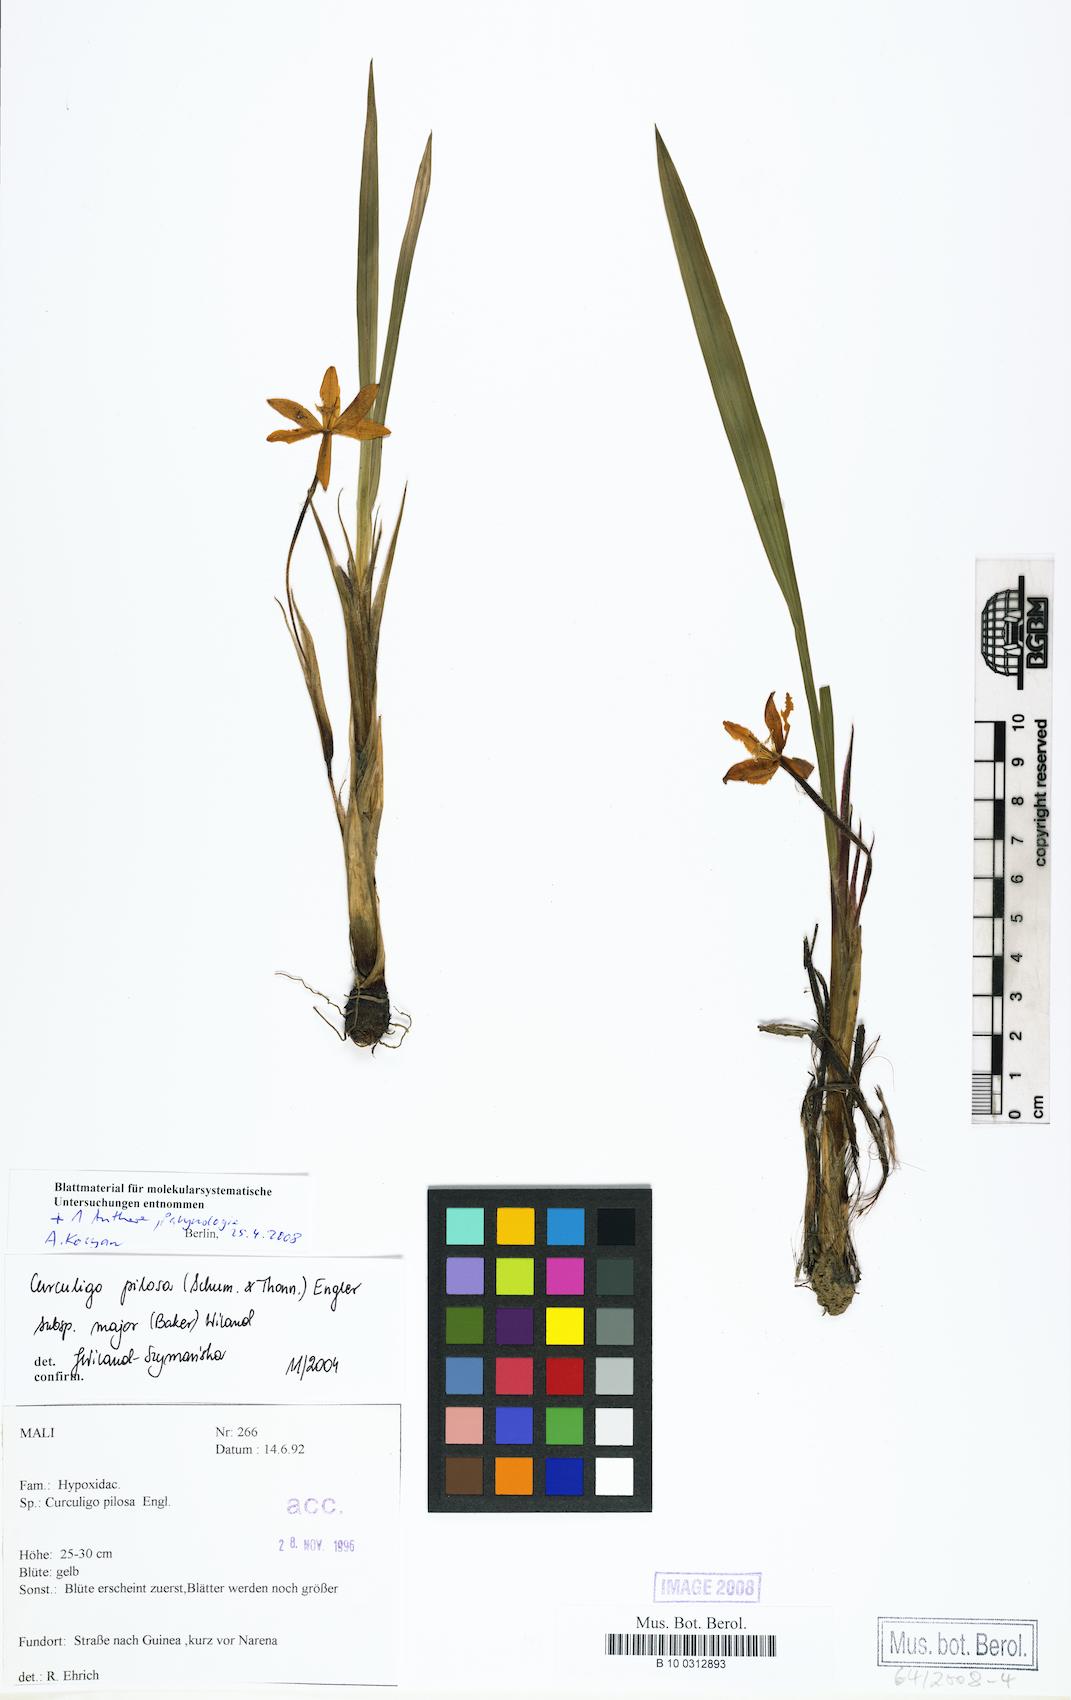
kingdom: Plantae
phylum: Tracheophyta
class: Liliopsida
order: Asparagales
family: Hypoxidaceae
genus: Curculigo
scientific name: Curculigo pilosa
